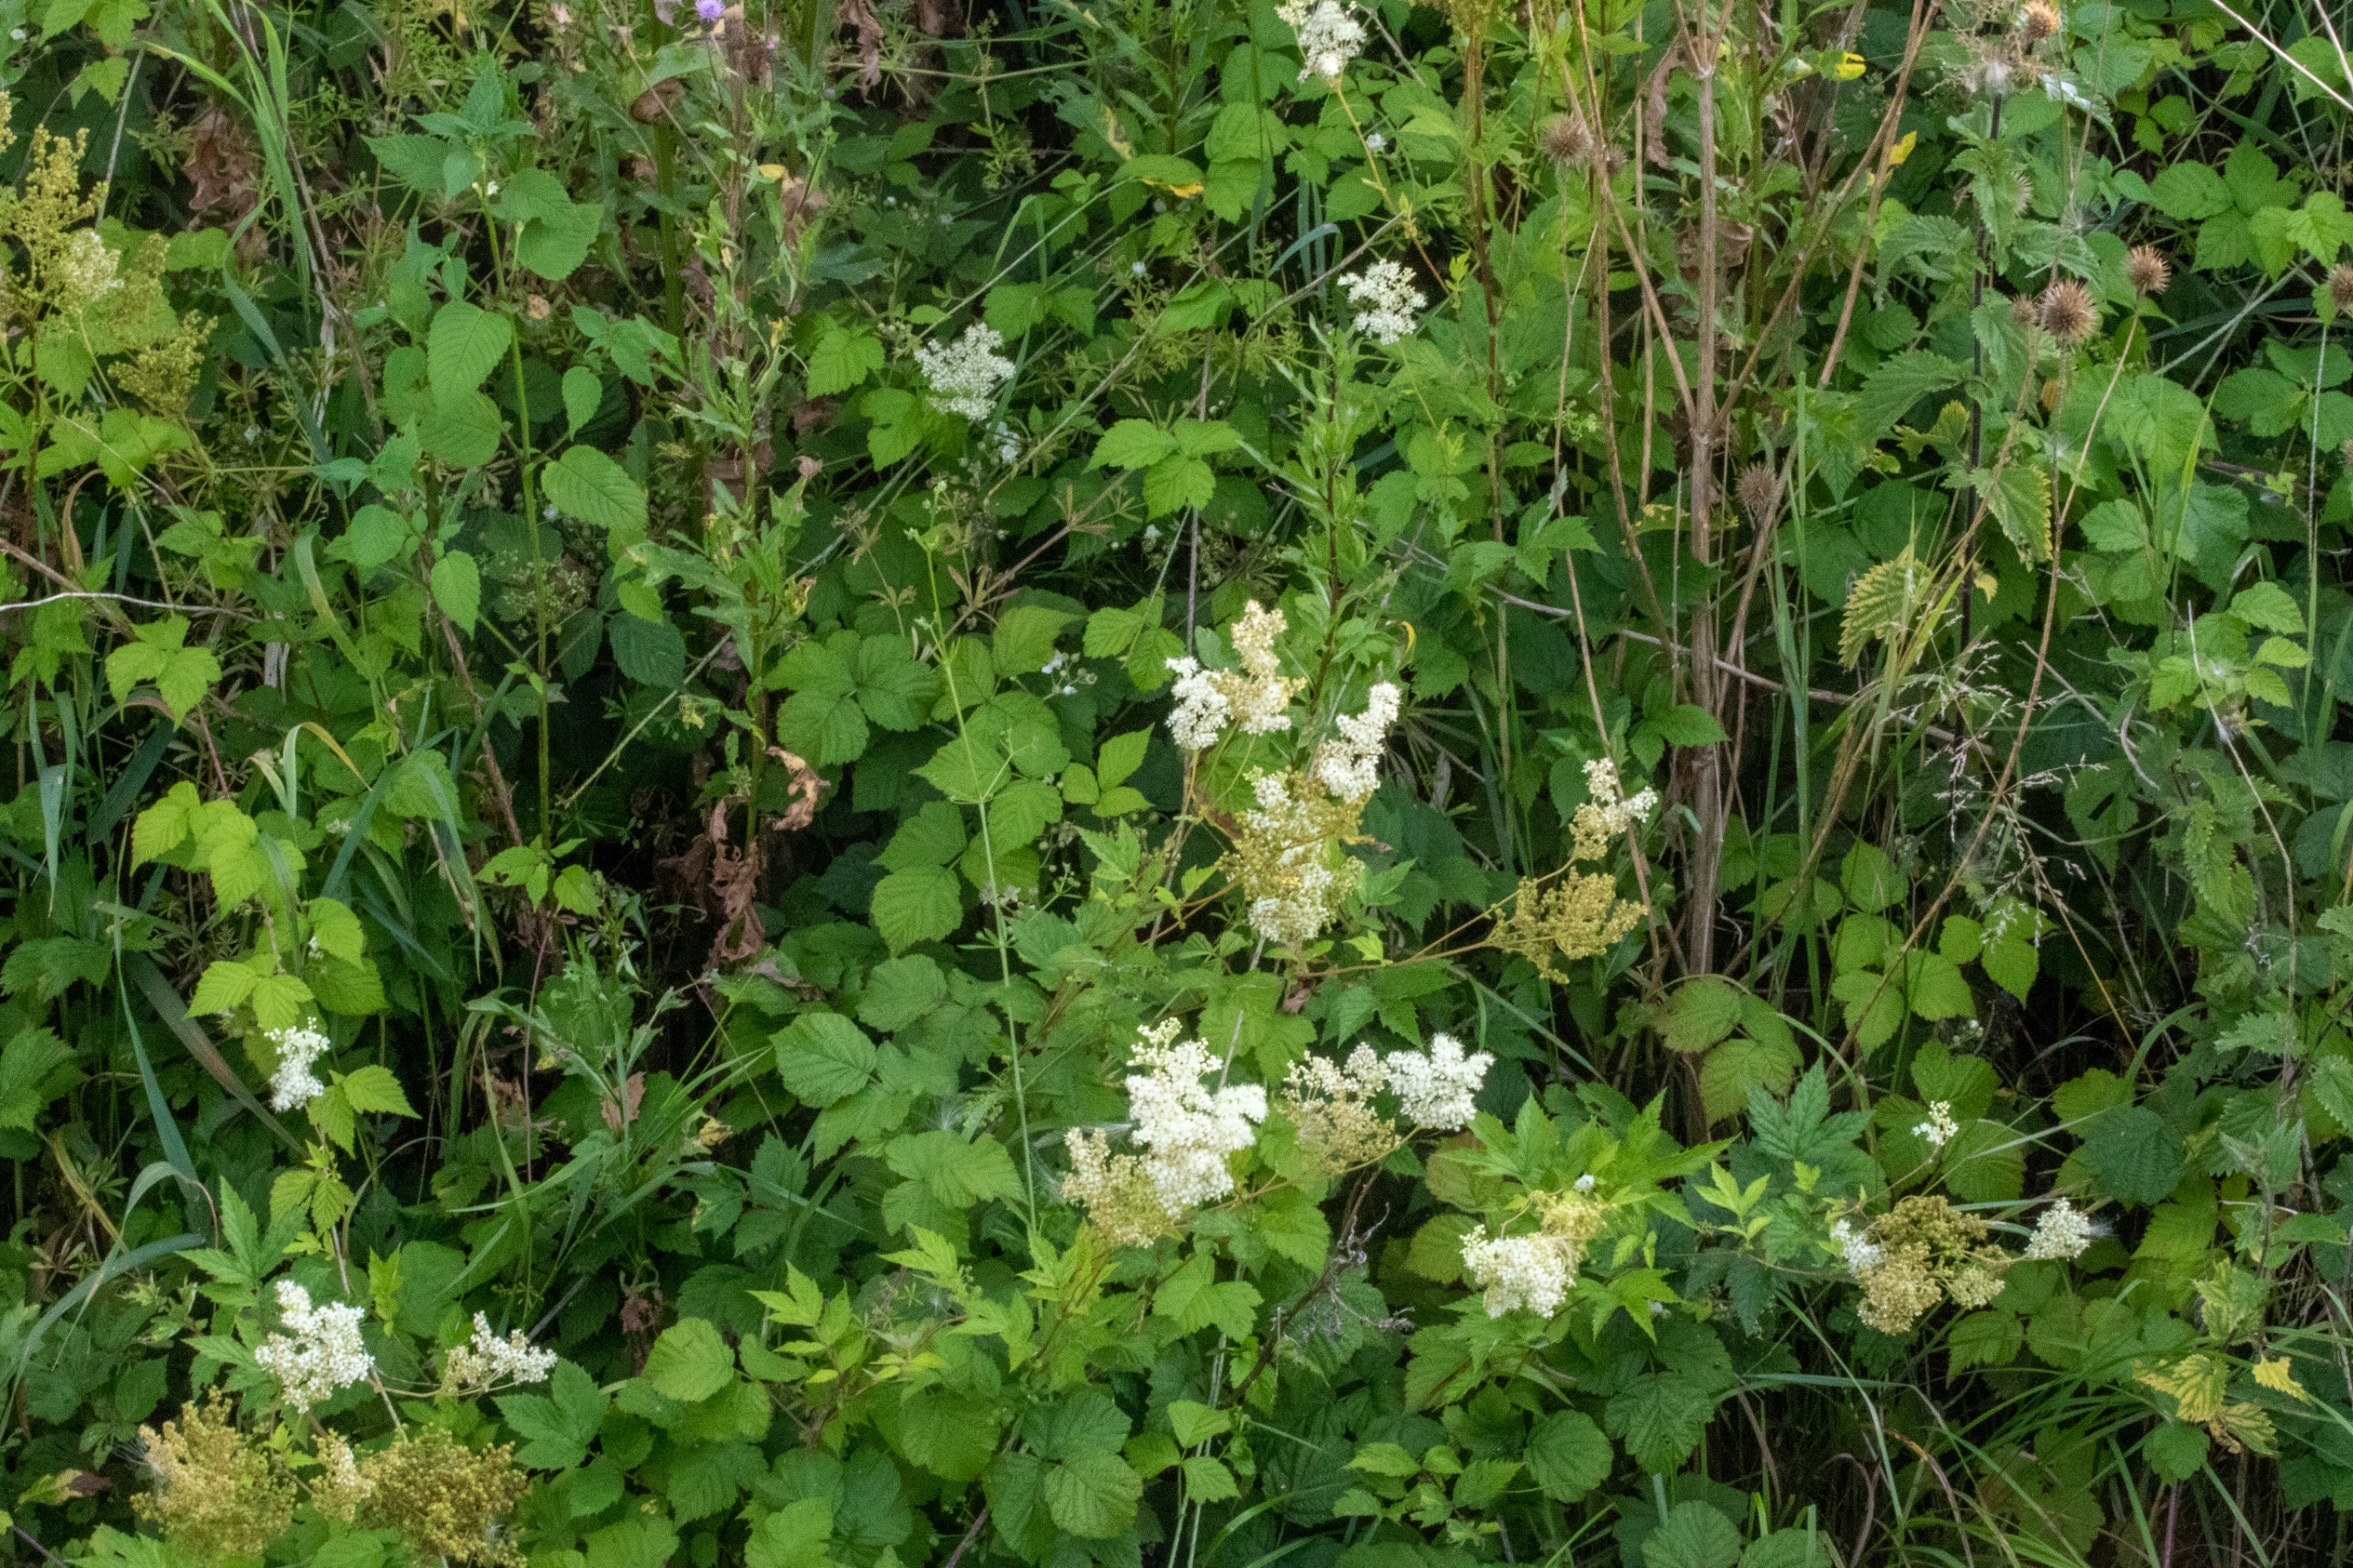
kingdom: Plantae
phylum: Tracheophyta
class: Magnoliopsida
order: Rosales
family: Rosaceae
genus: Filipendula
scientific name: Filipendula ulmaria
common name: Almindelig mjødurt
